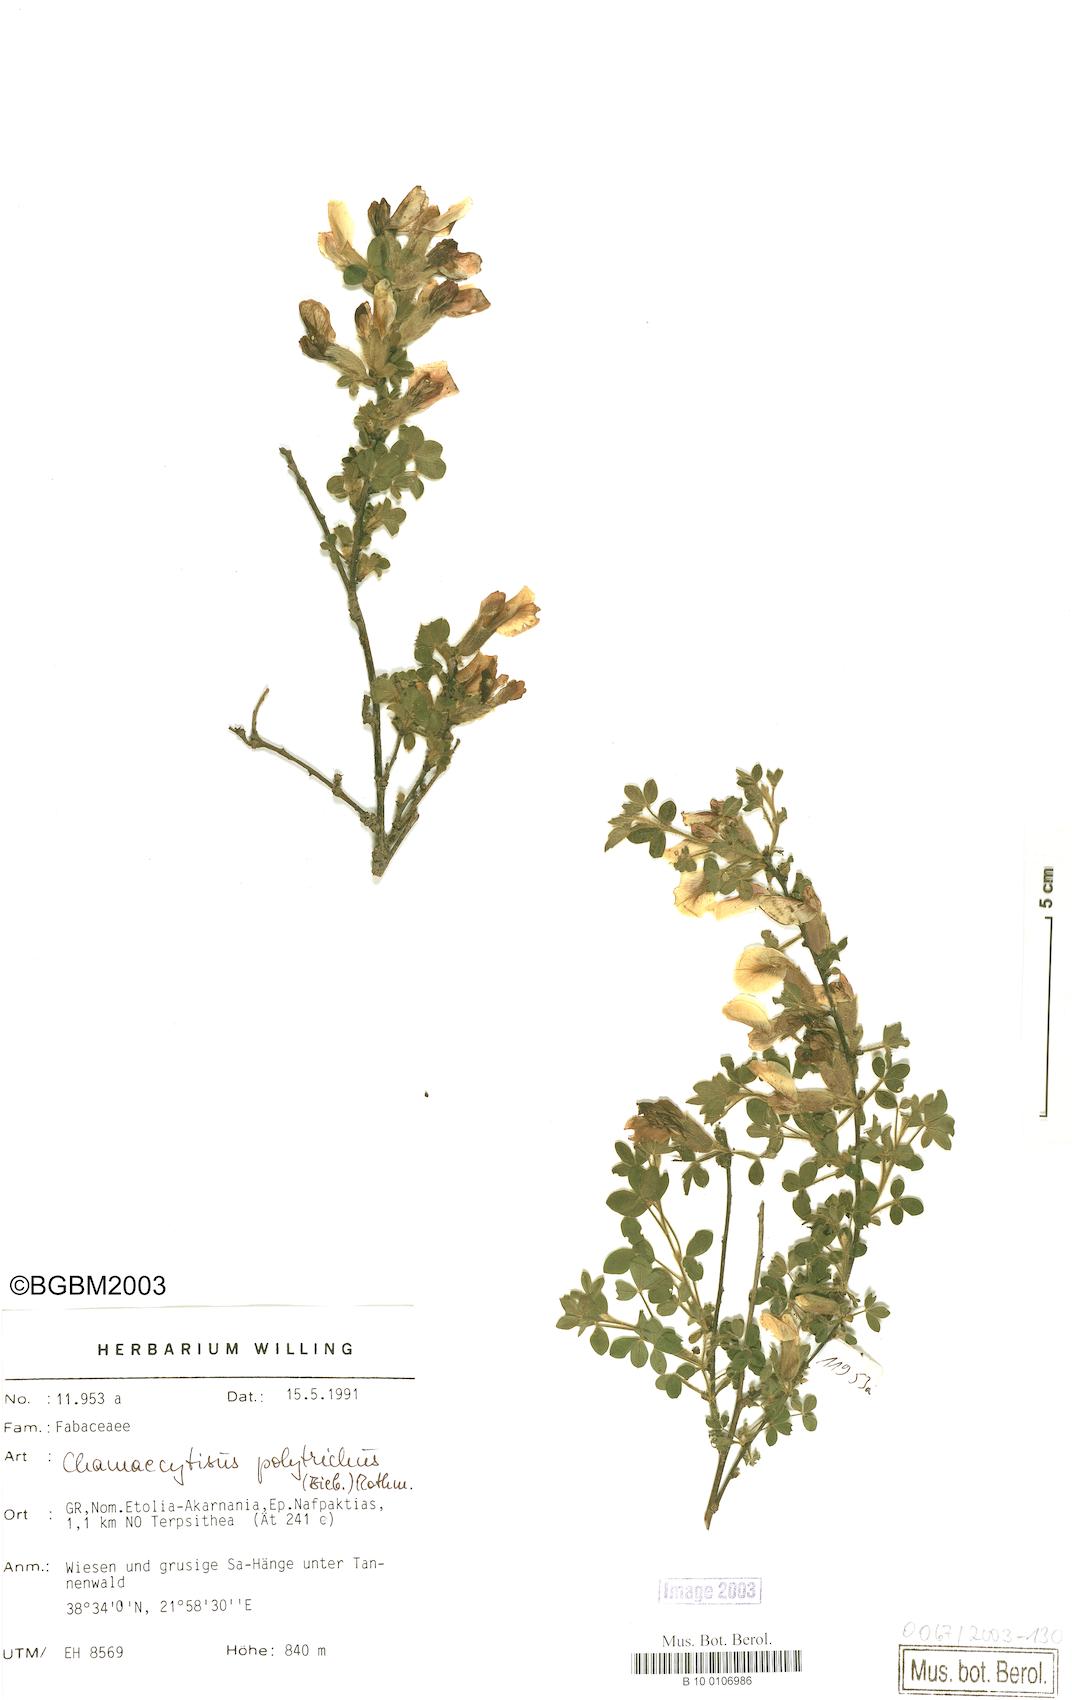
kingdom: Plantae
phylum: Tracheophyta
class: Magnoliopsida
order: Fabales
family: Fabaceae
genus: Chamaecytisus
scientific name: Chamaecytisus hirsutus
